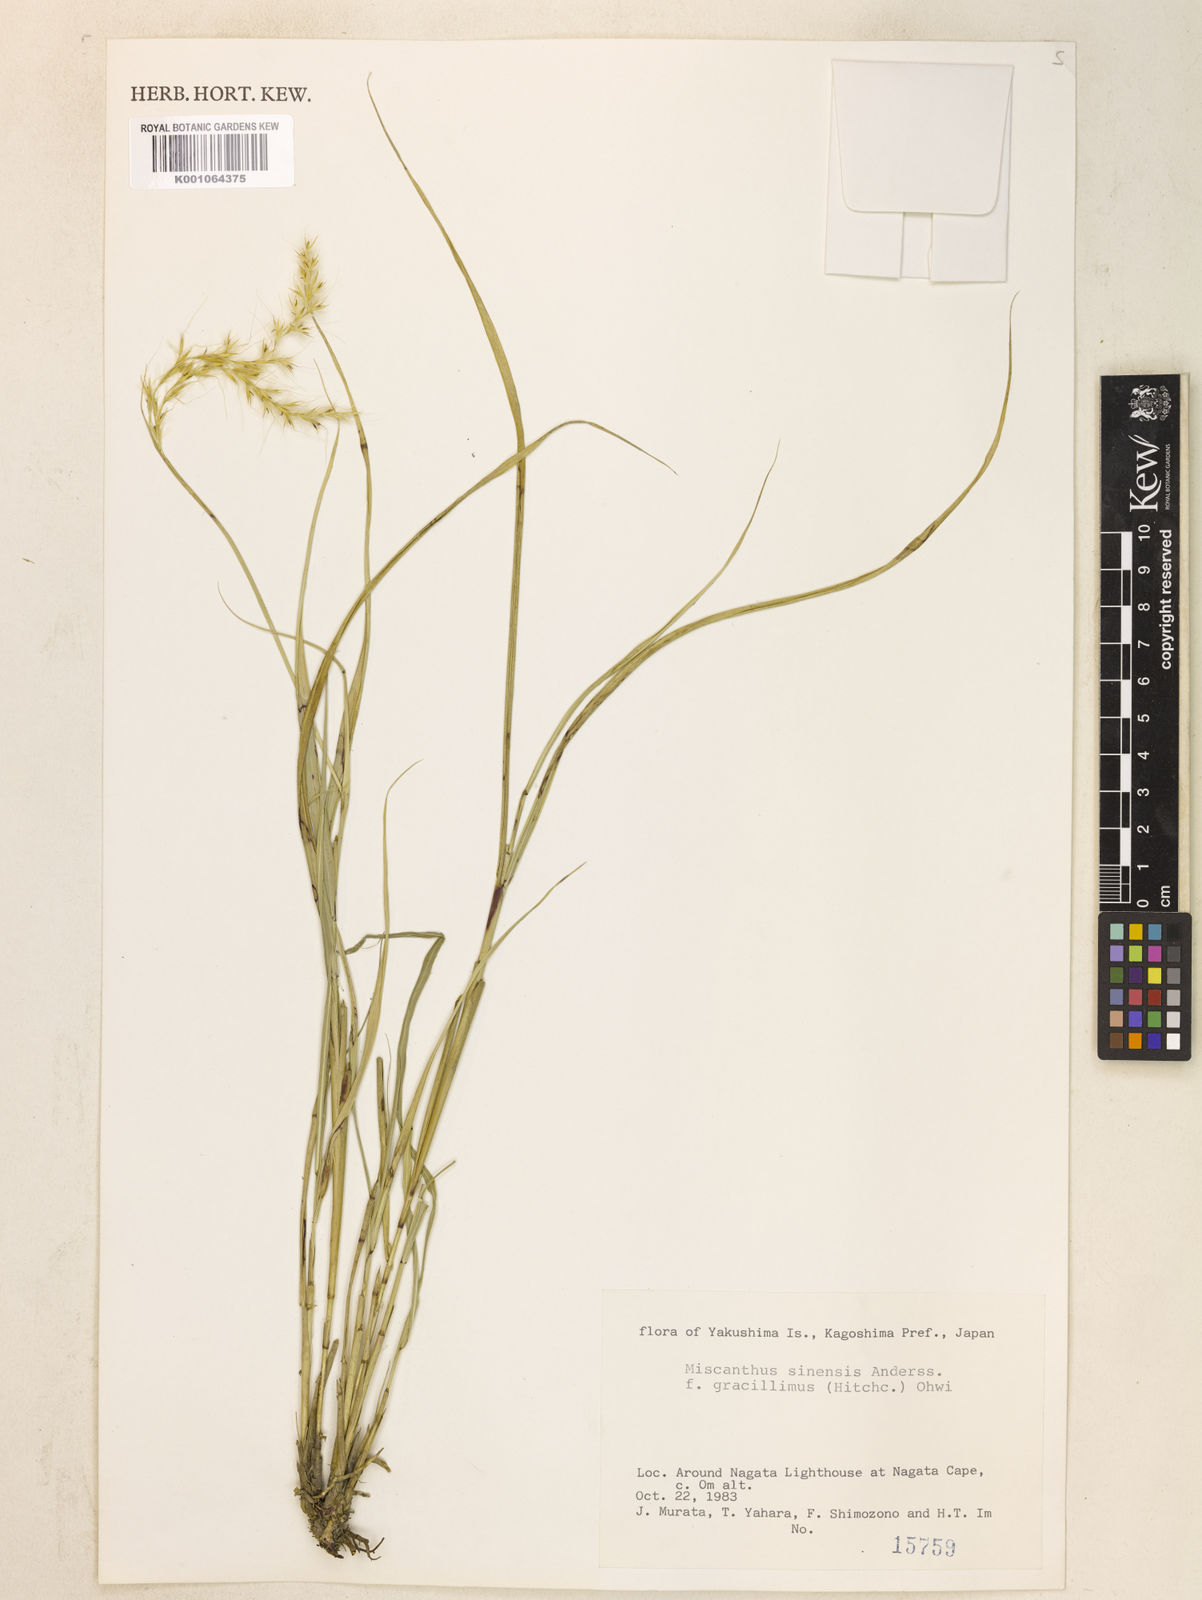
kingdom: Plantae
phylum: Tracheophyta
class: Liliopsida
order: Poales
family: Poaceae
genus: Miscanthus
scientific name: Miscanthus sinensis
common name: Chinese silvergrass
